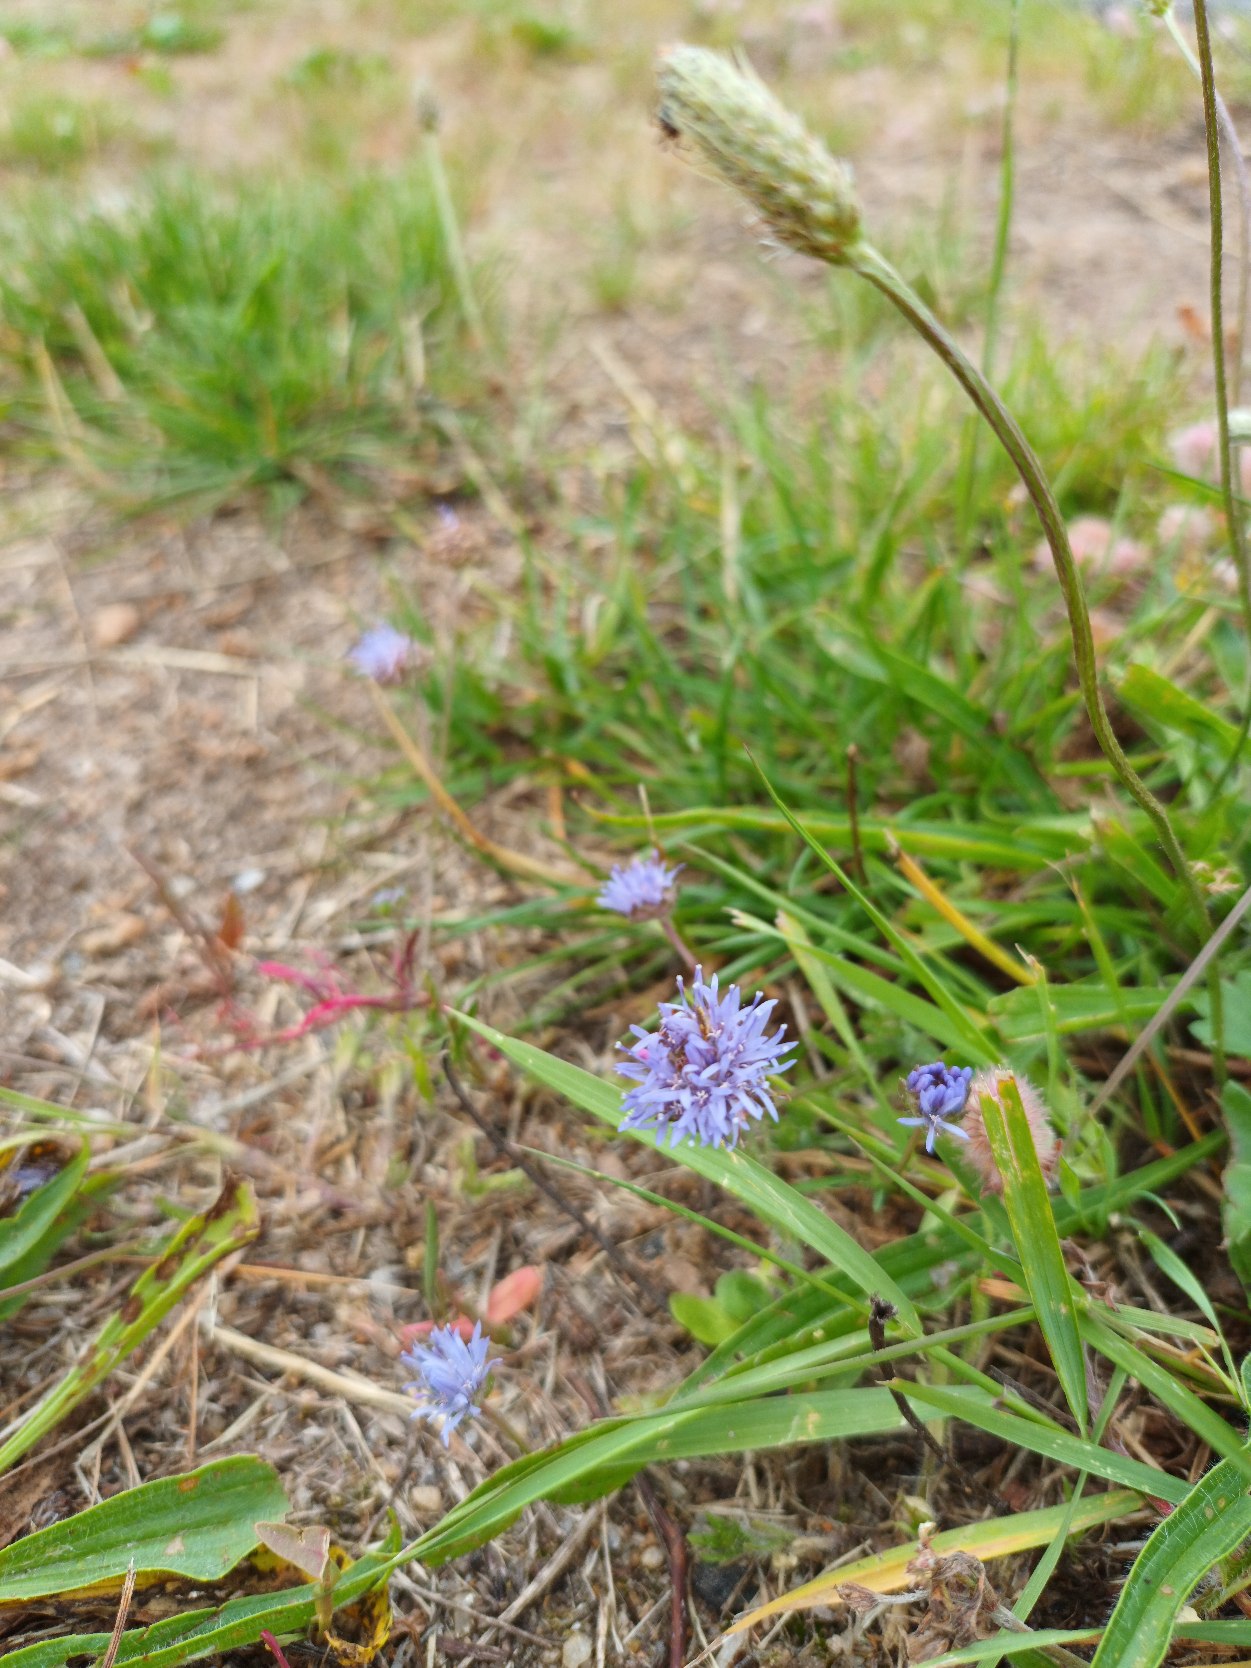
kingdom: Plantae
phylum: Tracheophyta
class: Magnoliopsida
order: Asterales
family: Campanulaceae
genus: Jasione
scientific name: Jasione montana
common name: Blåmunke
